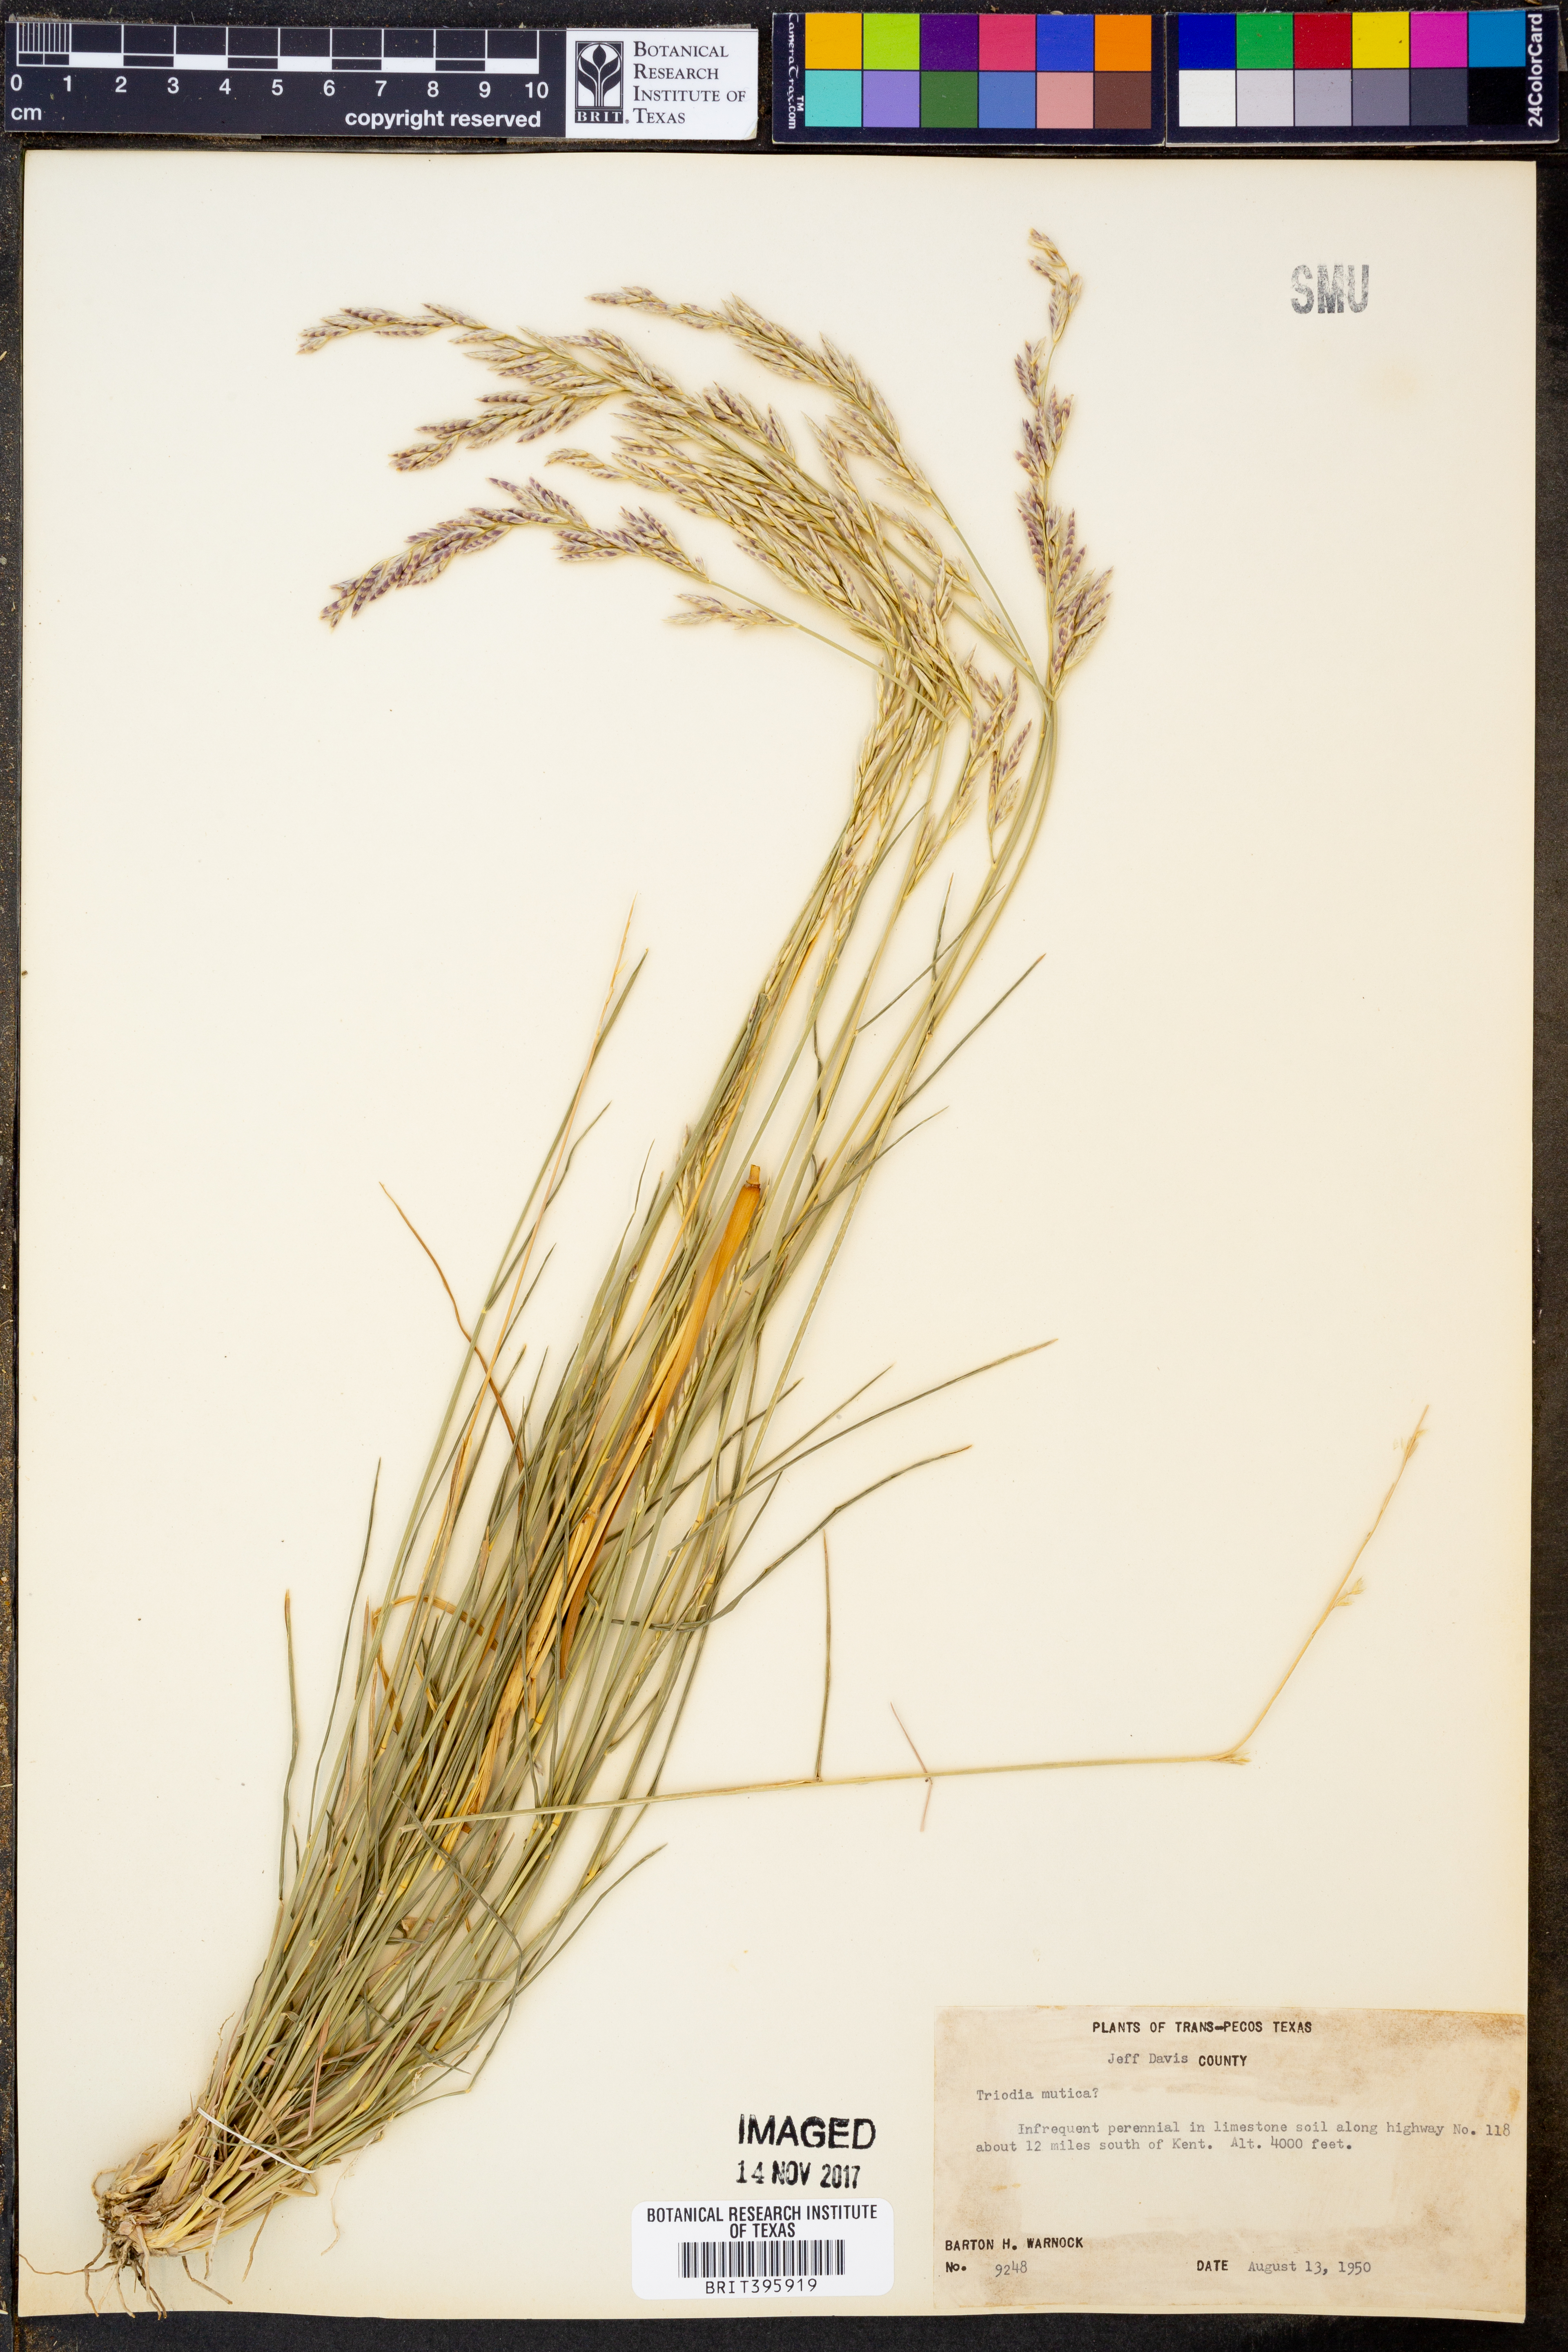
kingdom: Plantae
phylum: Tracheophyta
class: Liliopsida
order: Poales
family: Poaceae
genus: Tridentopsis
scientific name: Tridentopsis mutica
